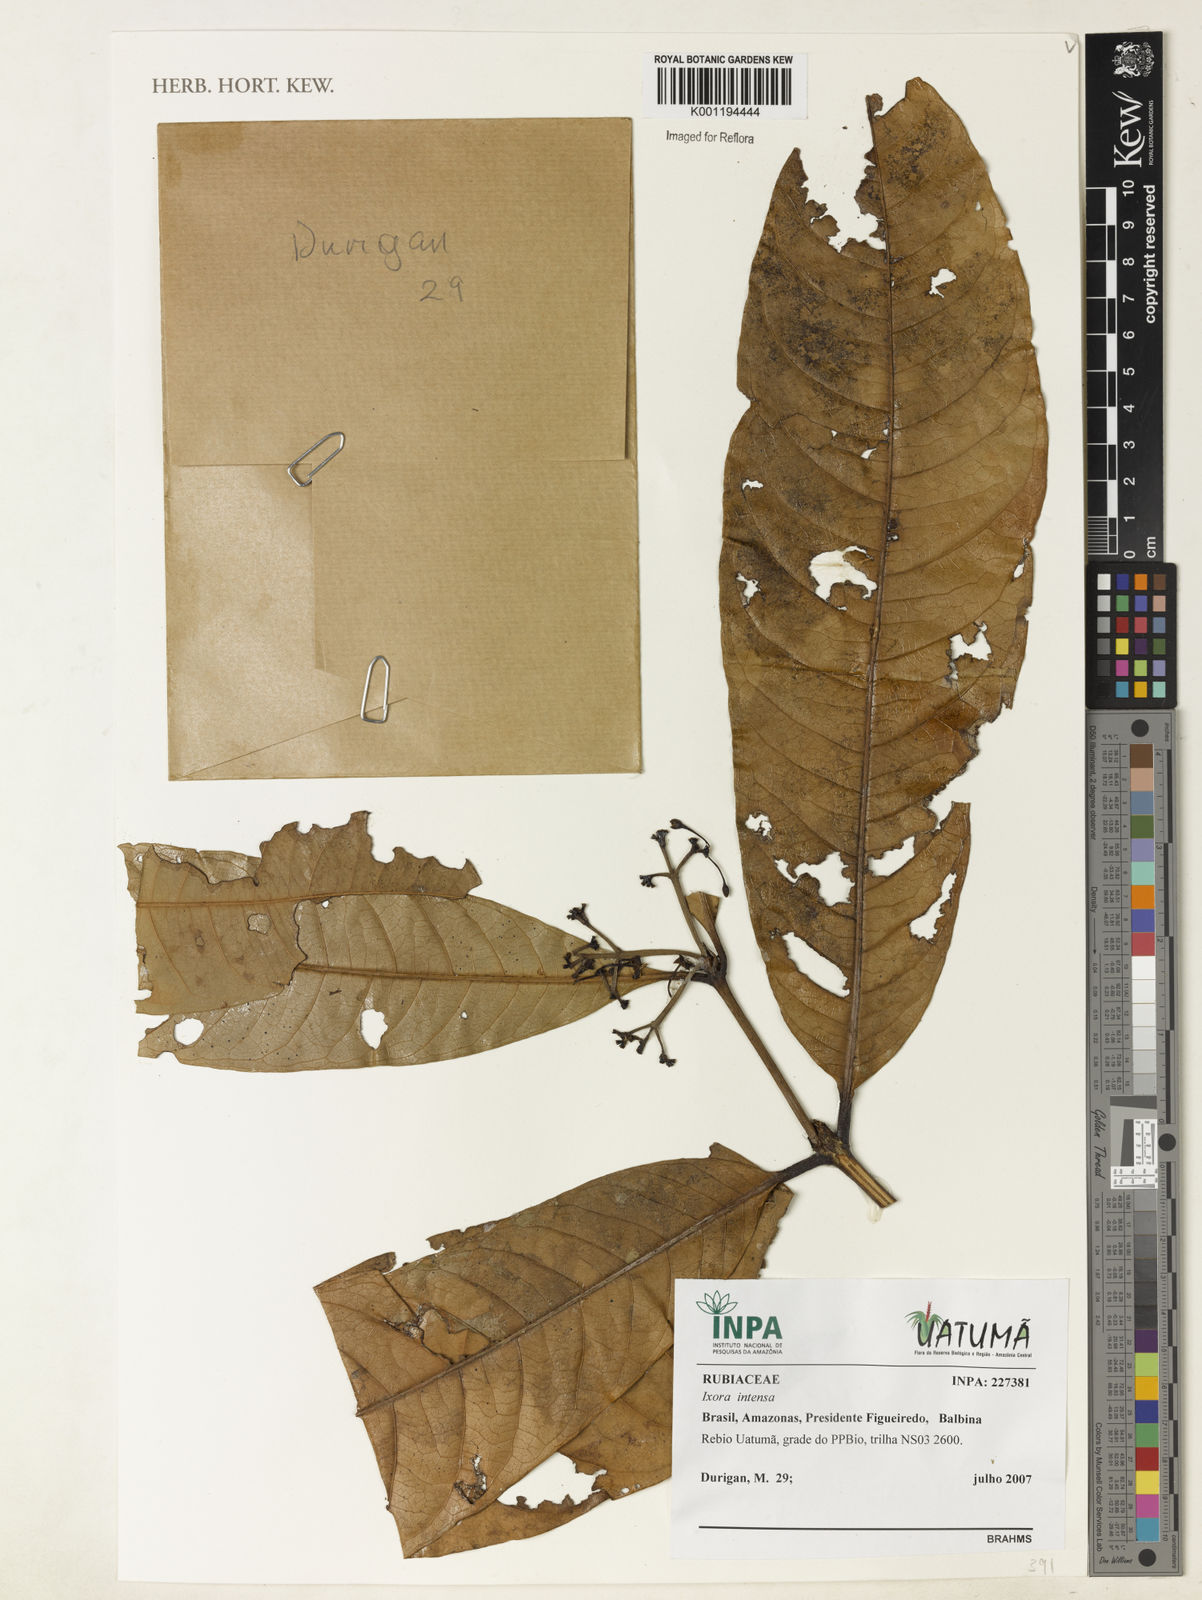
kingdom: Plantae
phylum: Tracheophyta
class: Magnoliopsida
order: Gentianales
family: Rubiaceae
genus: Ixora
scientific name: Ixora intensa
